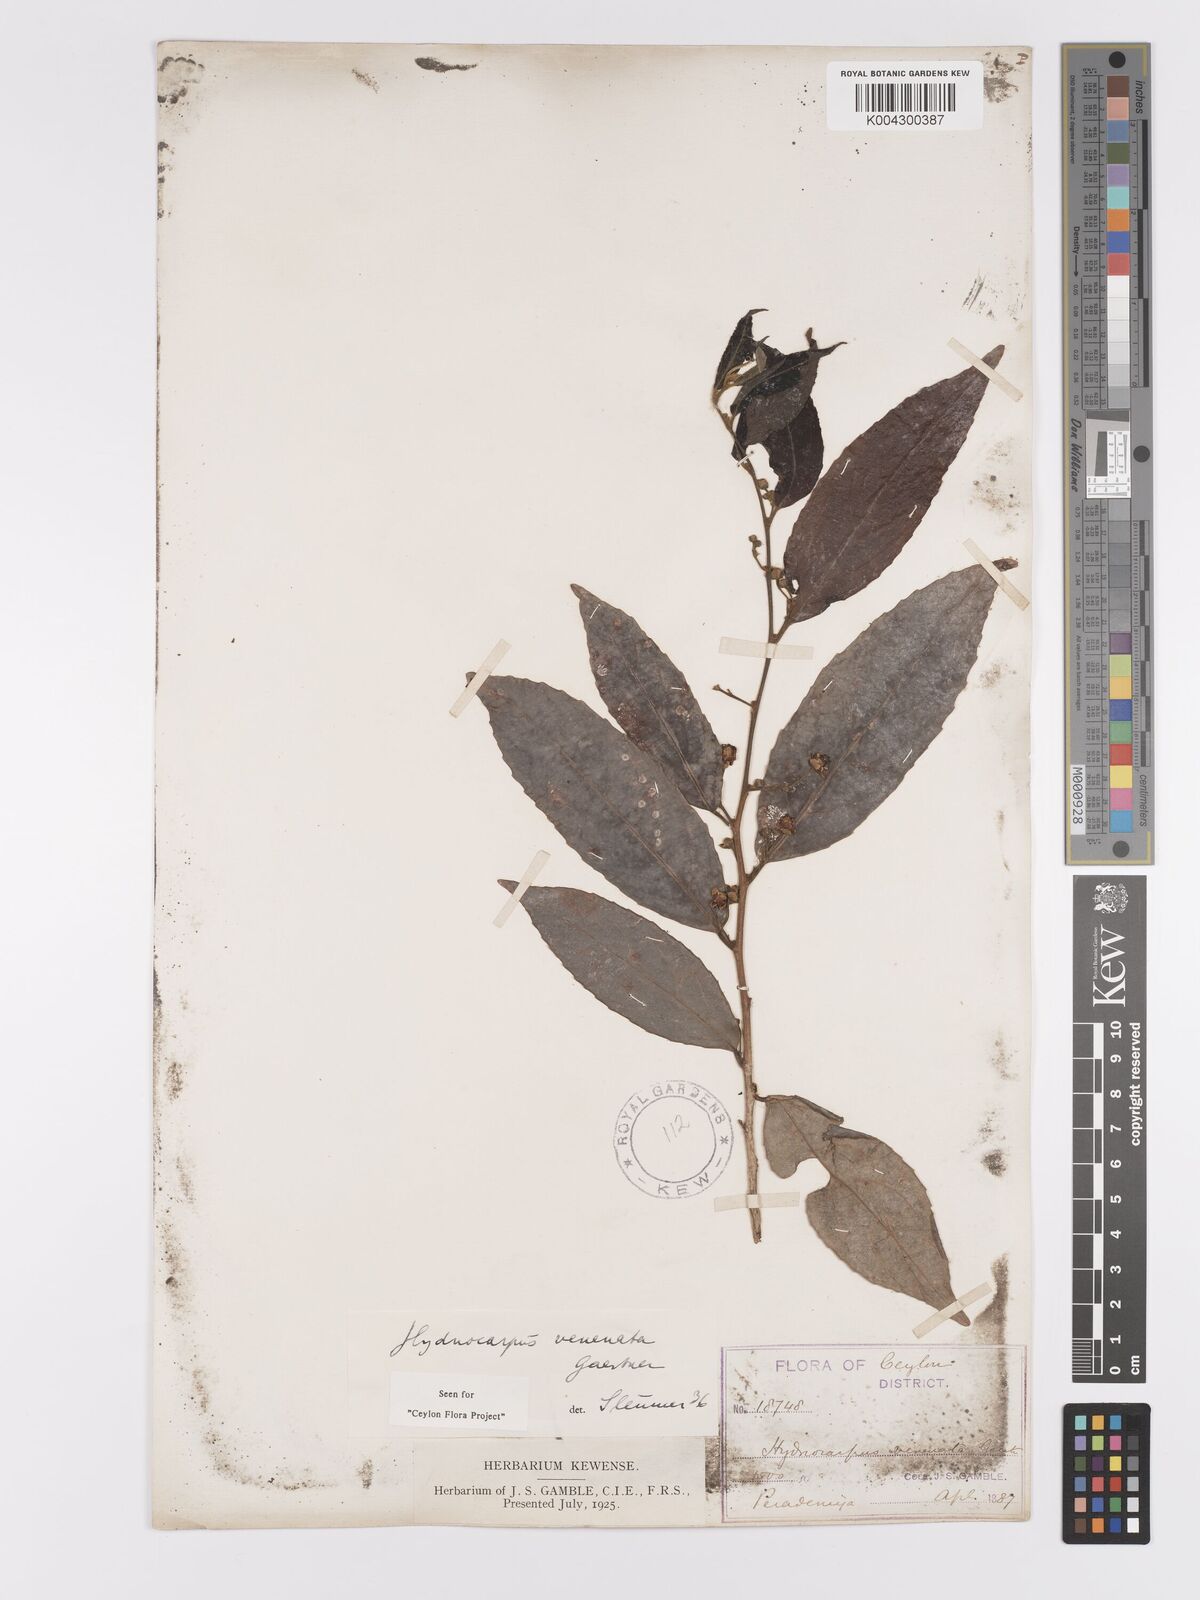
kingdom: Plantae
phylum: Tracheophyta
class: Magnoliopsida
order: Malpighiales
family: Achariaceae
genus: Hydnocarpus
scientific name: Hydnocarpus venenatus
